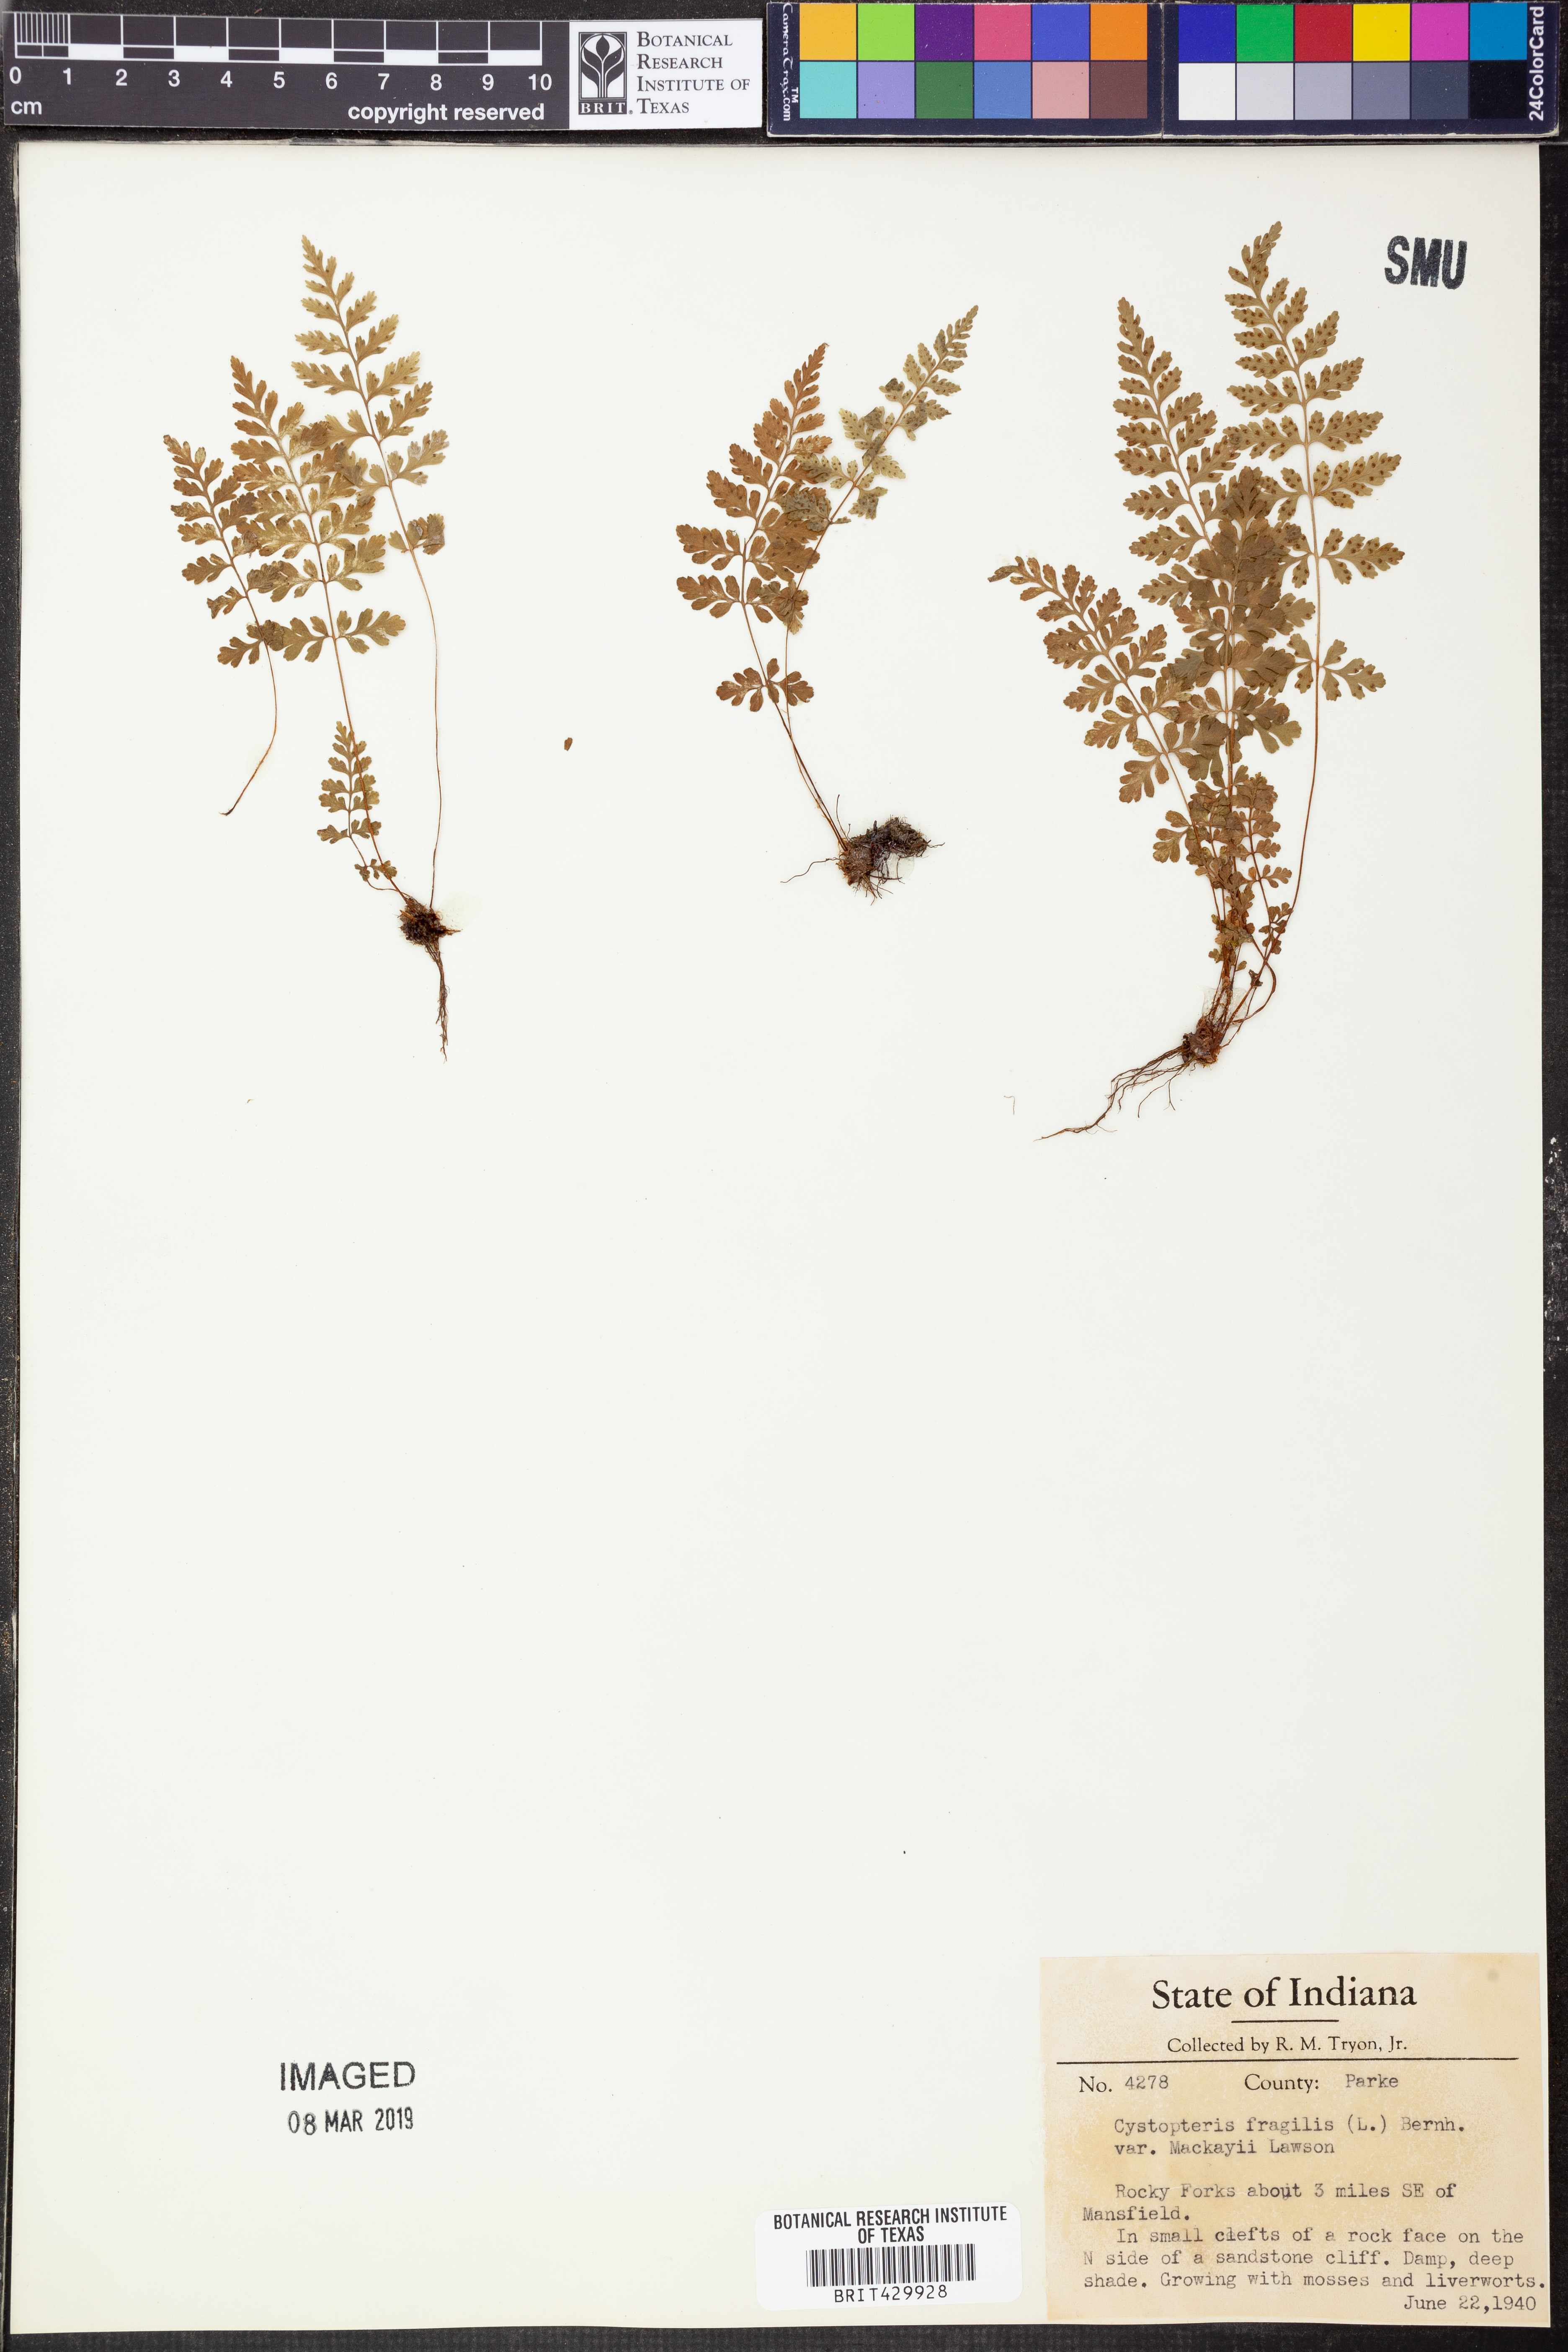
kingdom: Plantae
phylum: Tracheophyta
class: Polypodiopsida
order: Polypodiales
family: Cystopteridaceae
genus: Cystopteris
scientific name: Cystopteris tenuis
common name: Mackay's brittle fern
